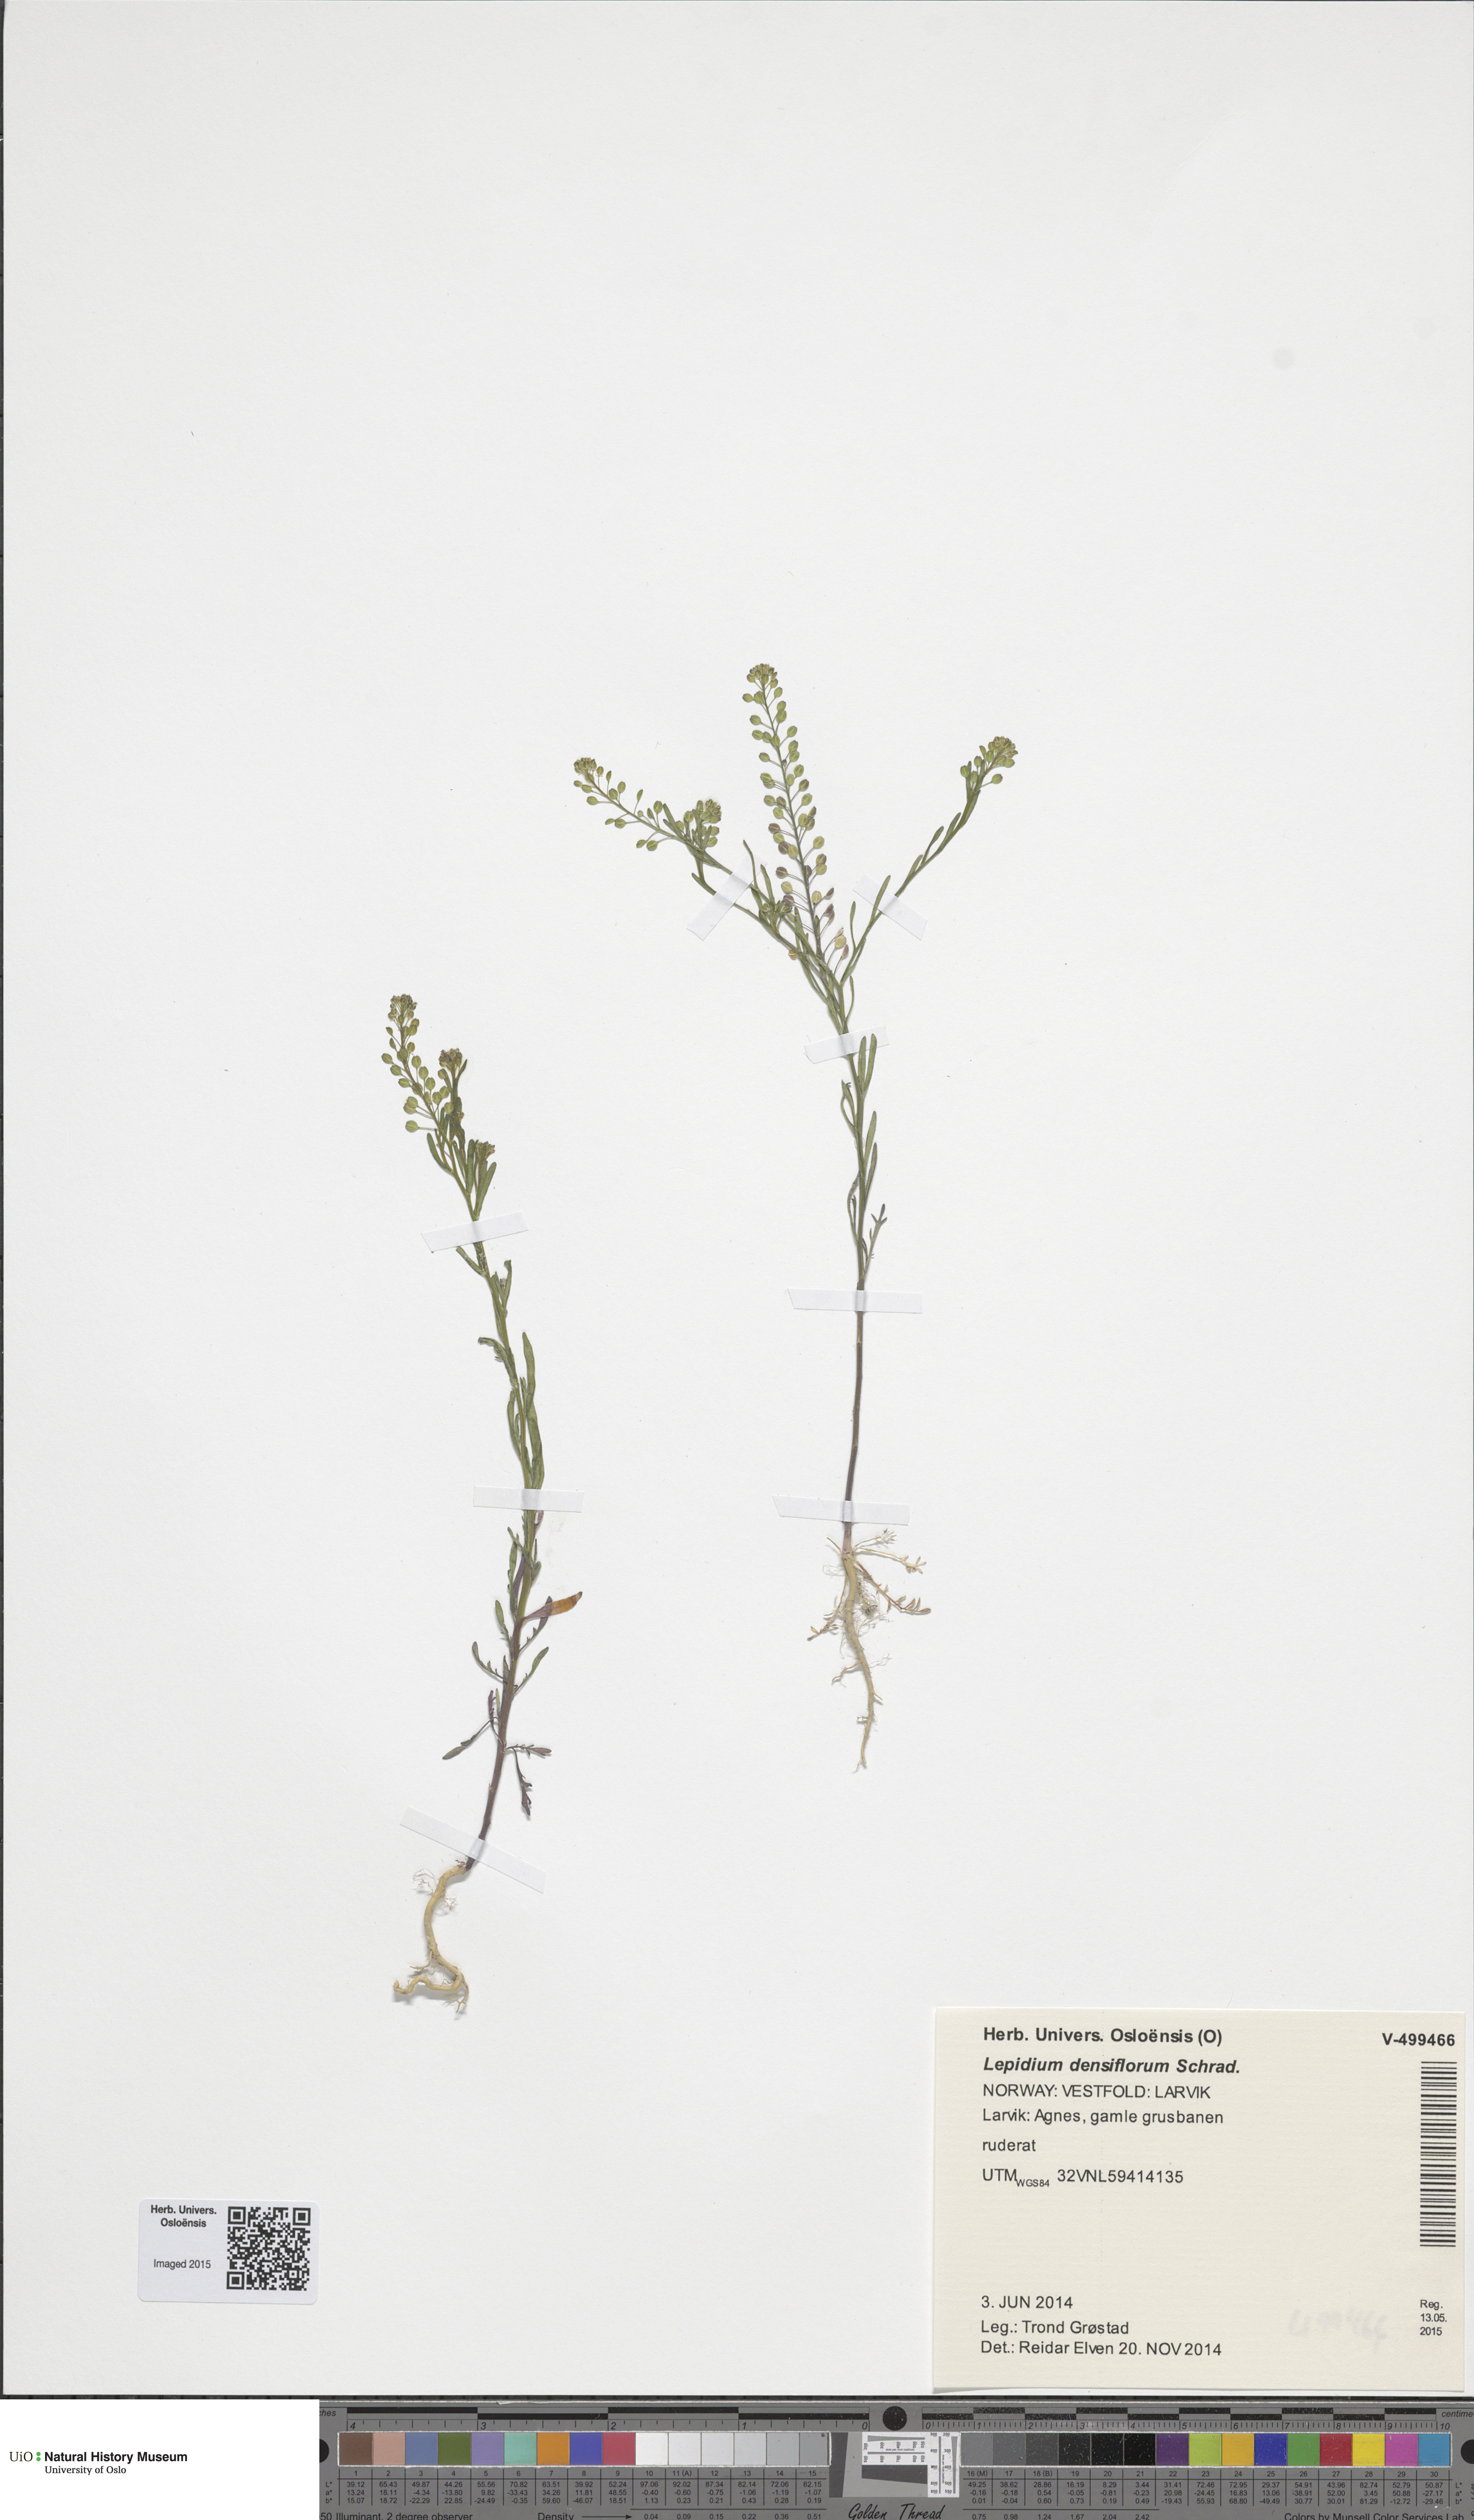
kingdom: Plantae
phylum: Tracheophyta
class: Magnoliopsida
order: Brassicales
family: Brassicaceae
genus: Lepidium
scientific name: Lepidium densiflorum
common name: Miner's pepperwort
